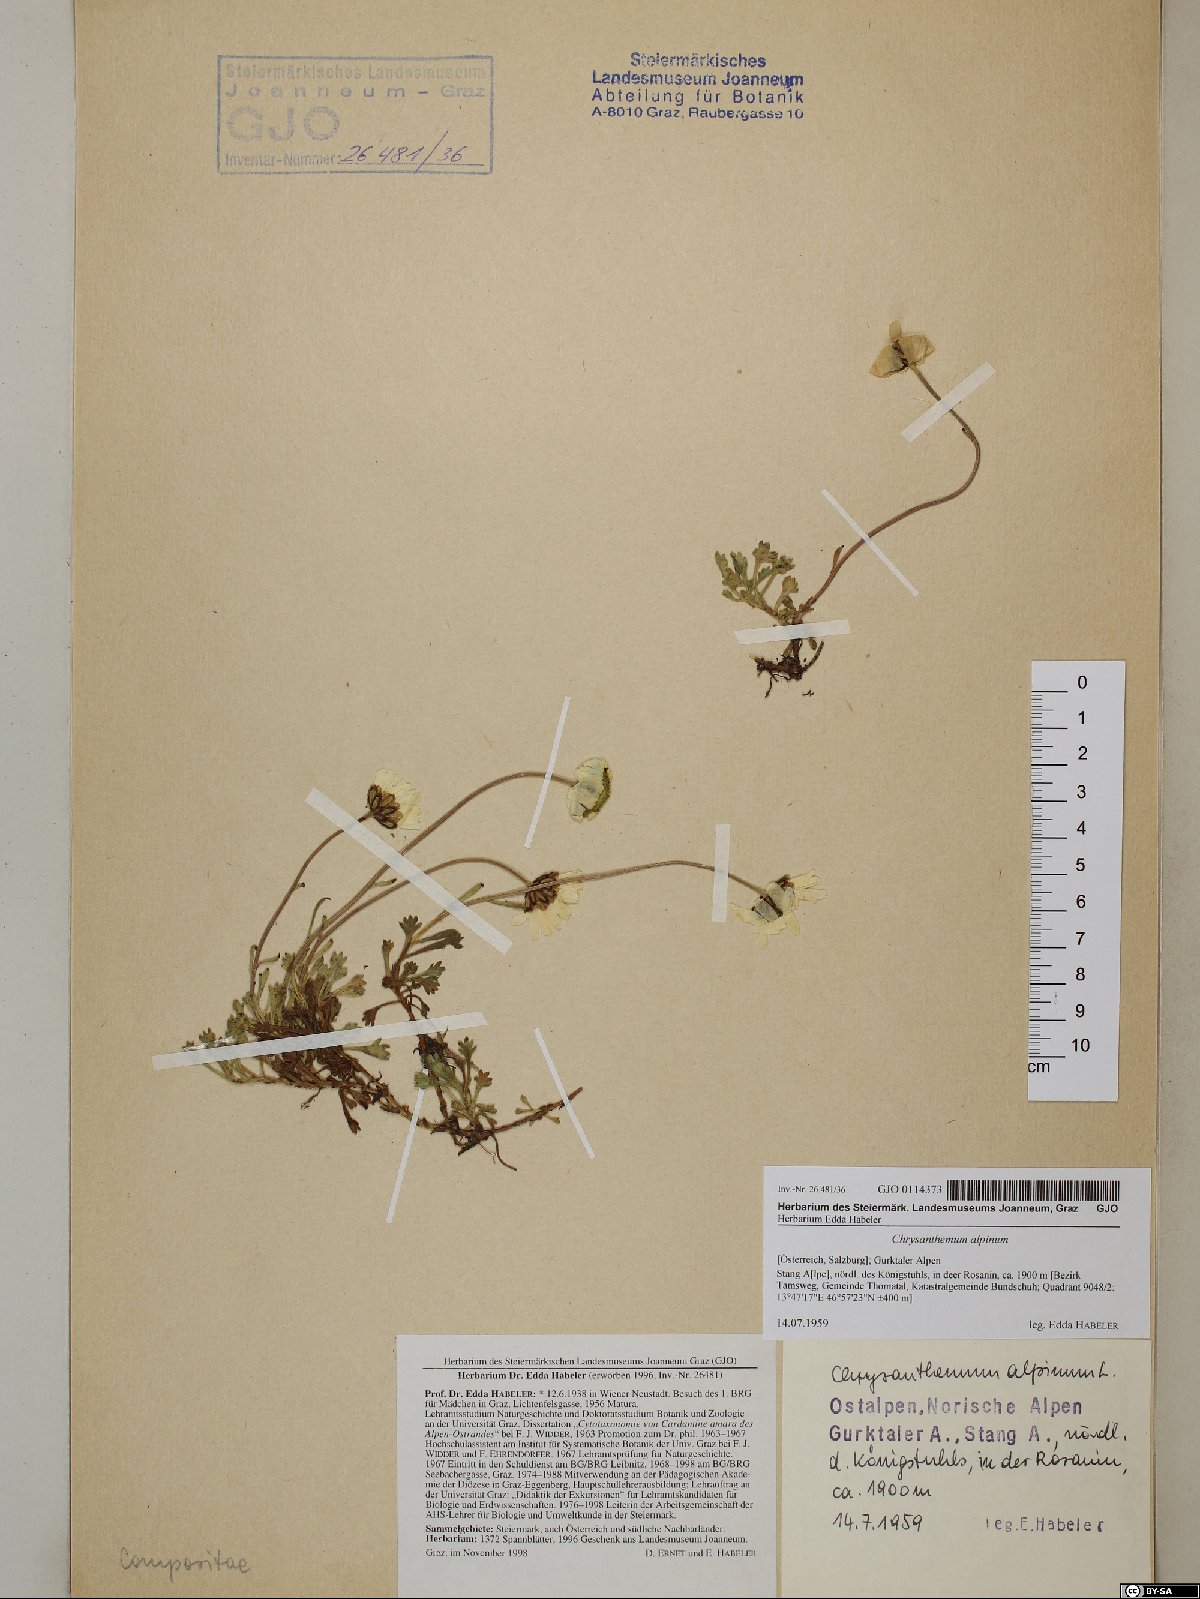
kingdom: Plantae
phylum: Tracheophyta
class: Magnoliopsida
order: Asterales
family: Asteraceae
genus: Leucanthemopsis
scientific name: Leucanthemopsis alpina
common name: Alpine moon daisy
